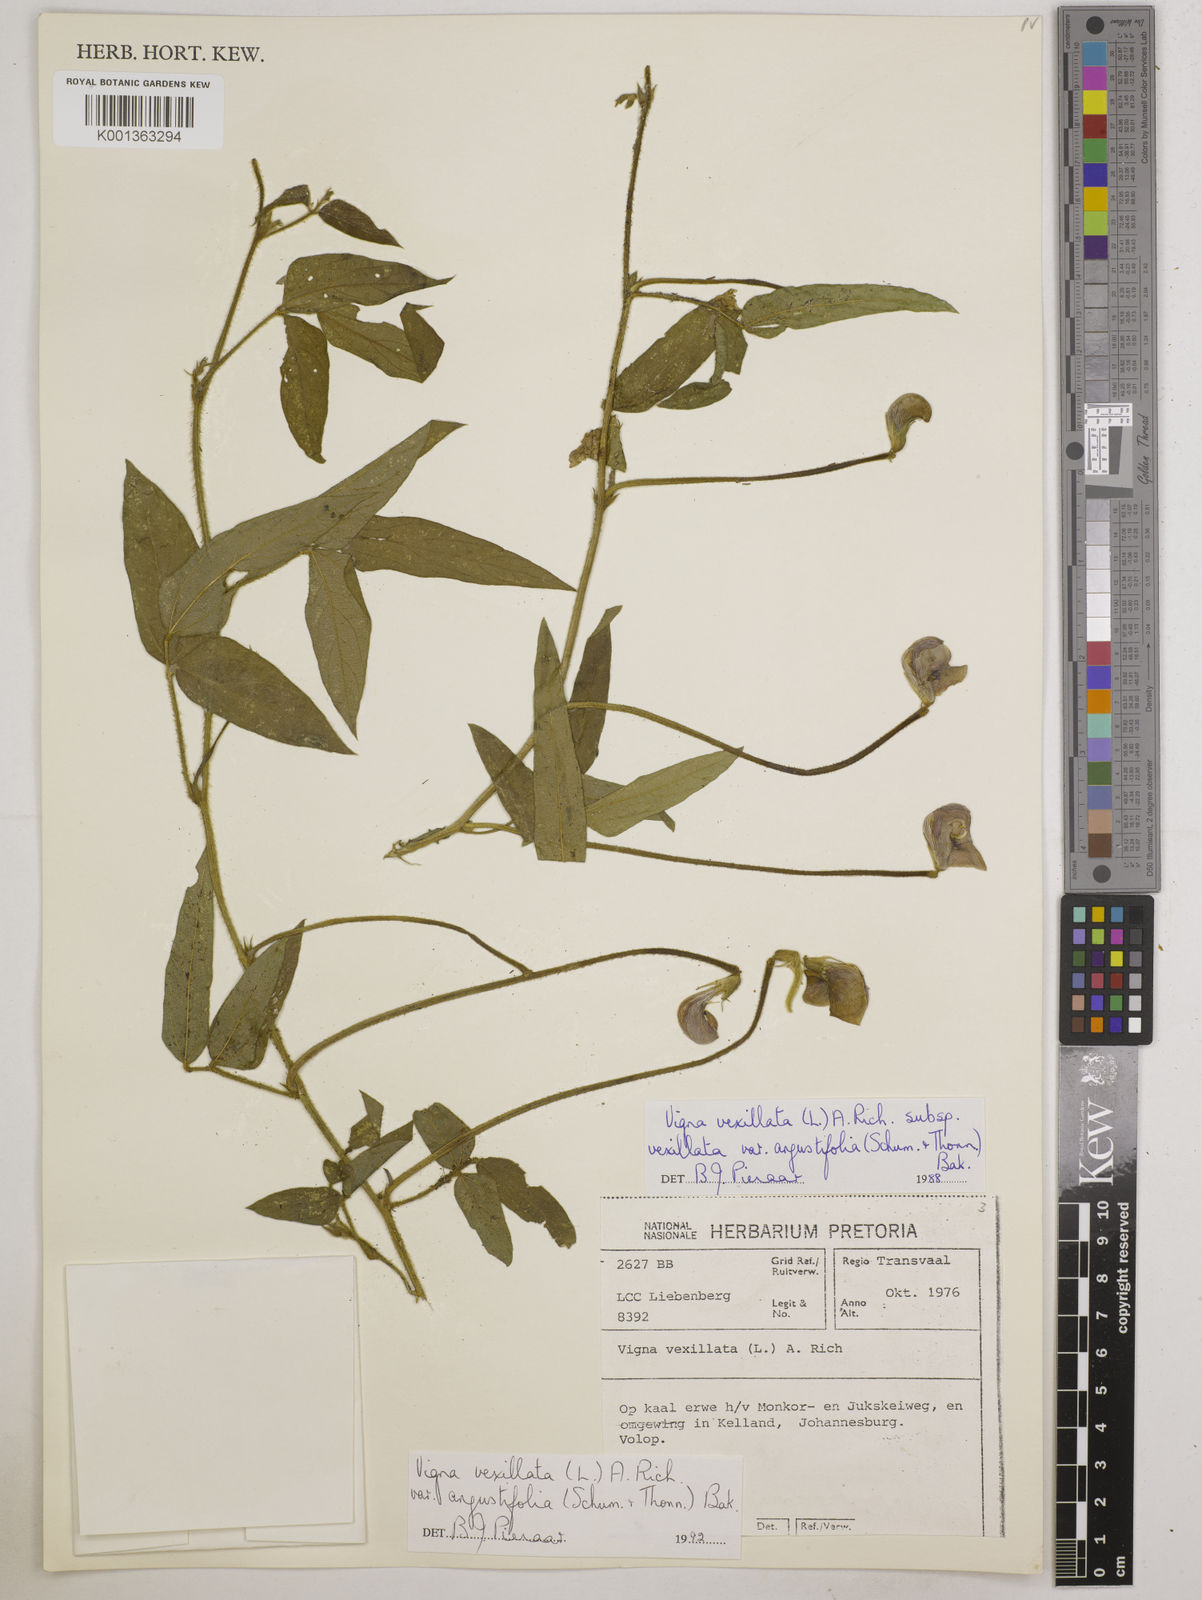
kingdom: Plantae
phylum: Tracheophyta
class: Magnoliopsida
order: Fabales
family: Fabaceae
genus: Vigna
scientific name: Vigna vexillata
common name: Zombi pea
